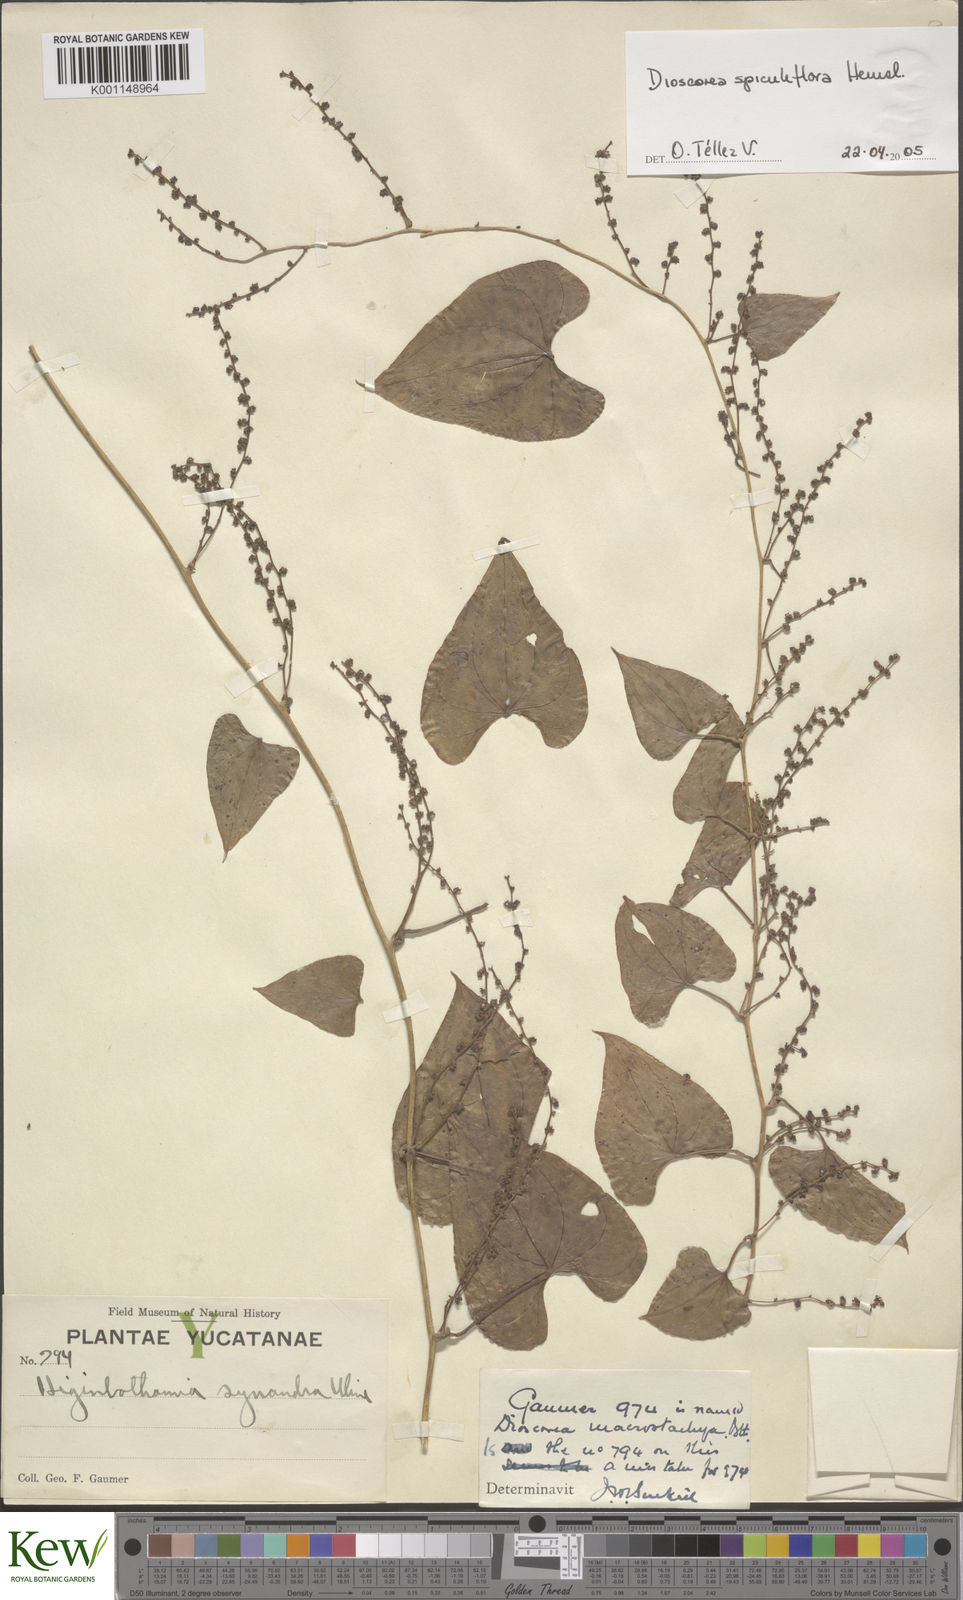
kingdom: Plantae
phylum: Tracheophyta
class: Liliopsida
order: Dioscoreales
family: Dioscoreaceae
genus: Dioscorea
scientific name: Dioscorea spiculiflora
